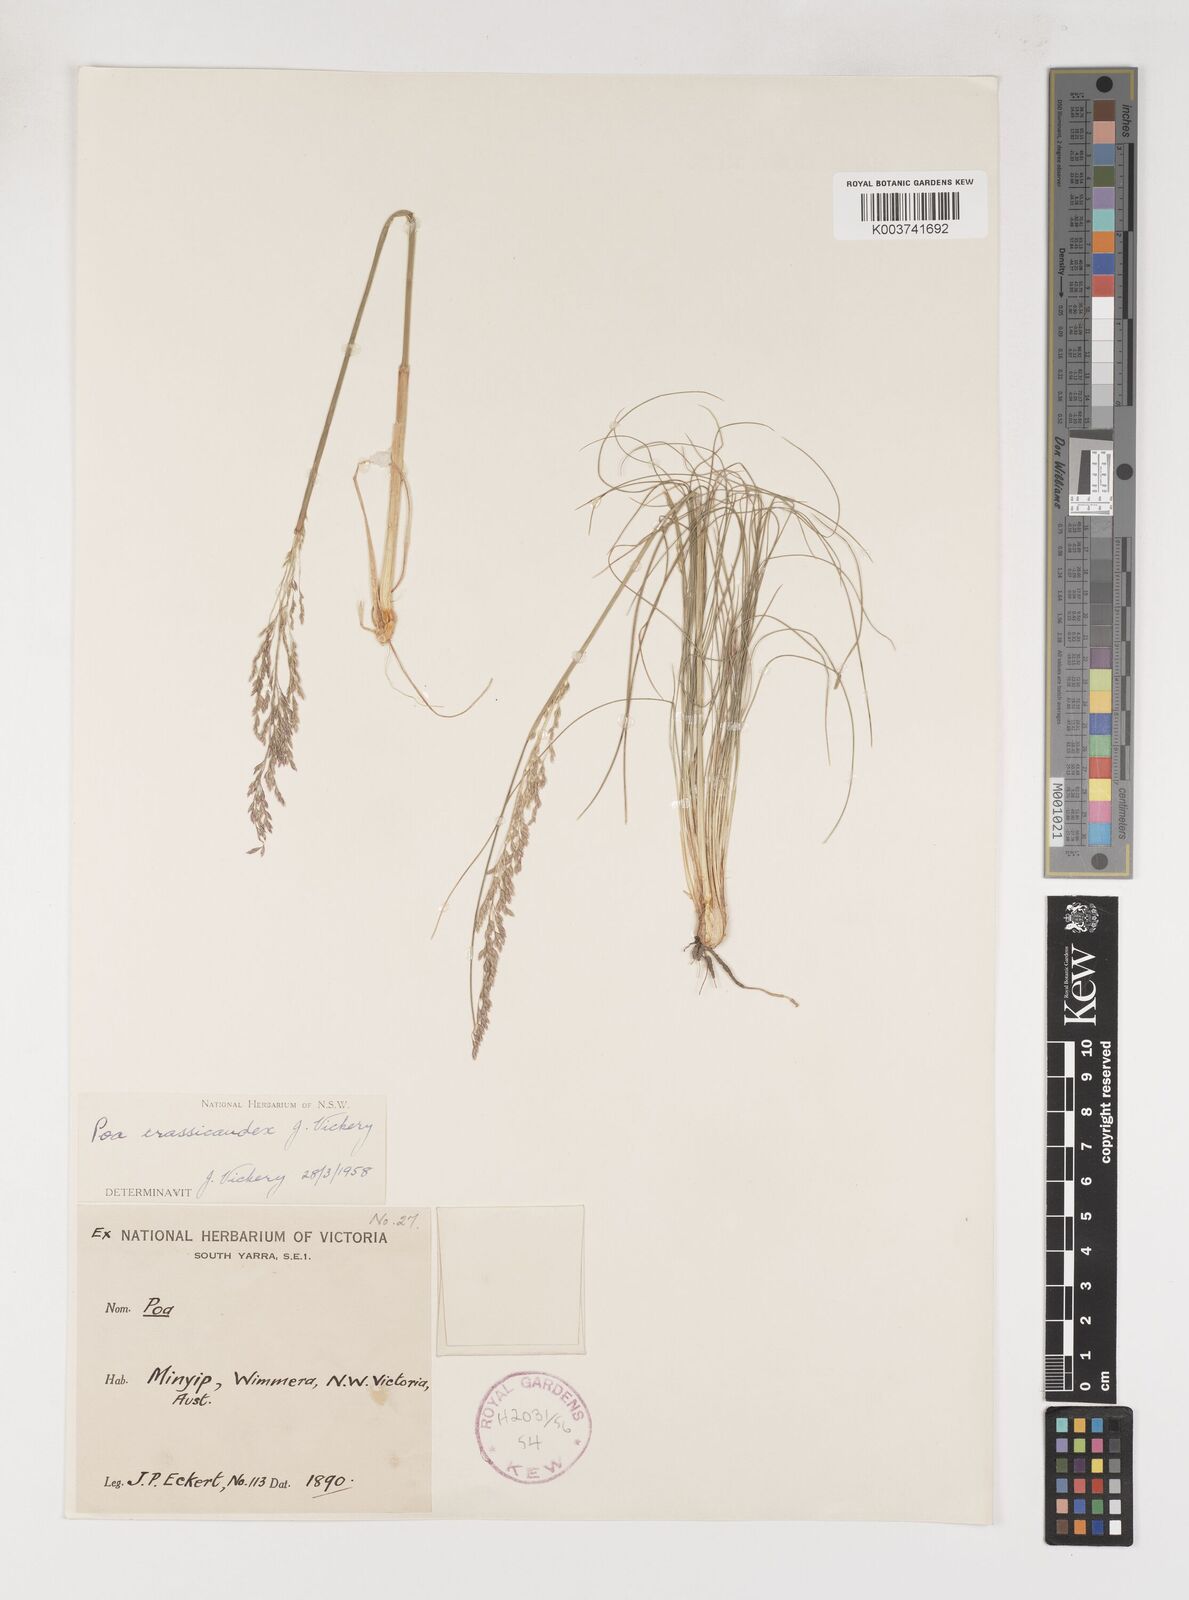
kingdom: Plantae
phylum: Tracheophyta
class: Liliopsida
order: Poales
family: Poaceae
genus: Poa
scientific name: Poa crassicaudex
